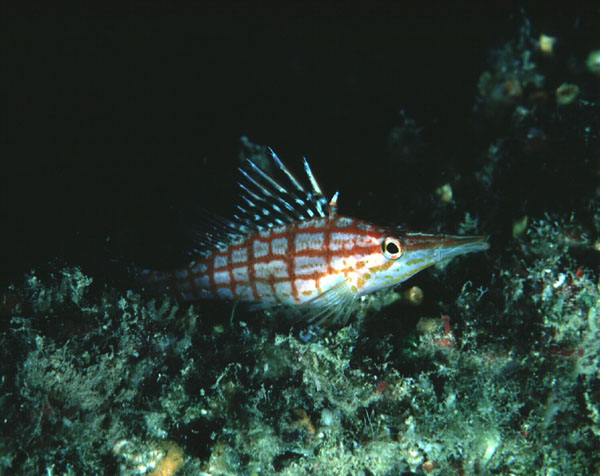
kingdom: Animalia
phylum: Chordata
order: Perciformes
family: Cirrhitidae
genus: Oxycirrhites
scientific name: Oxycirrhites typus
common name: Longnose hawkfish
